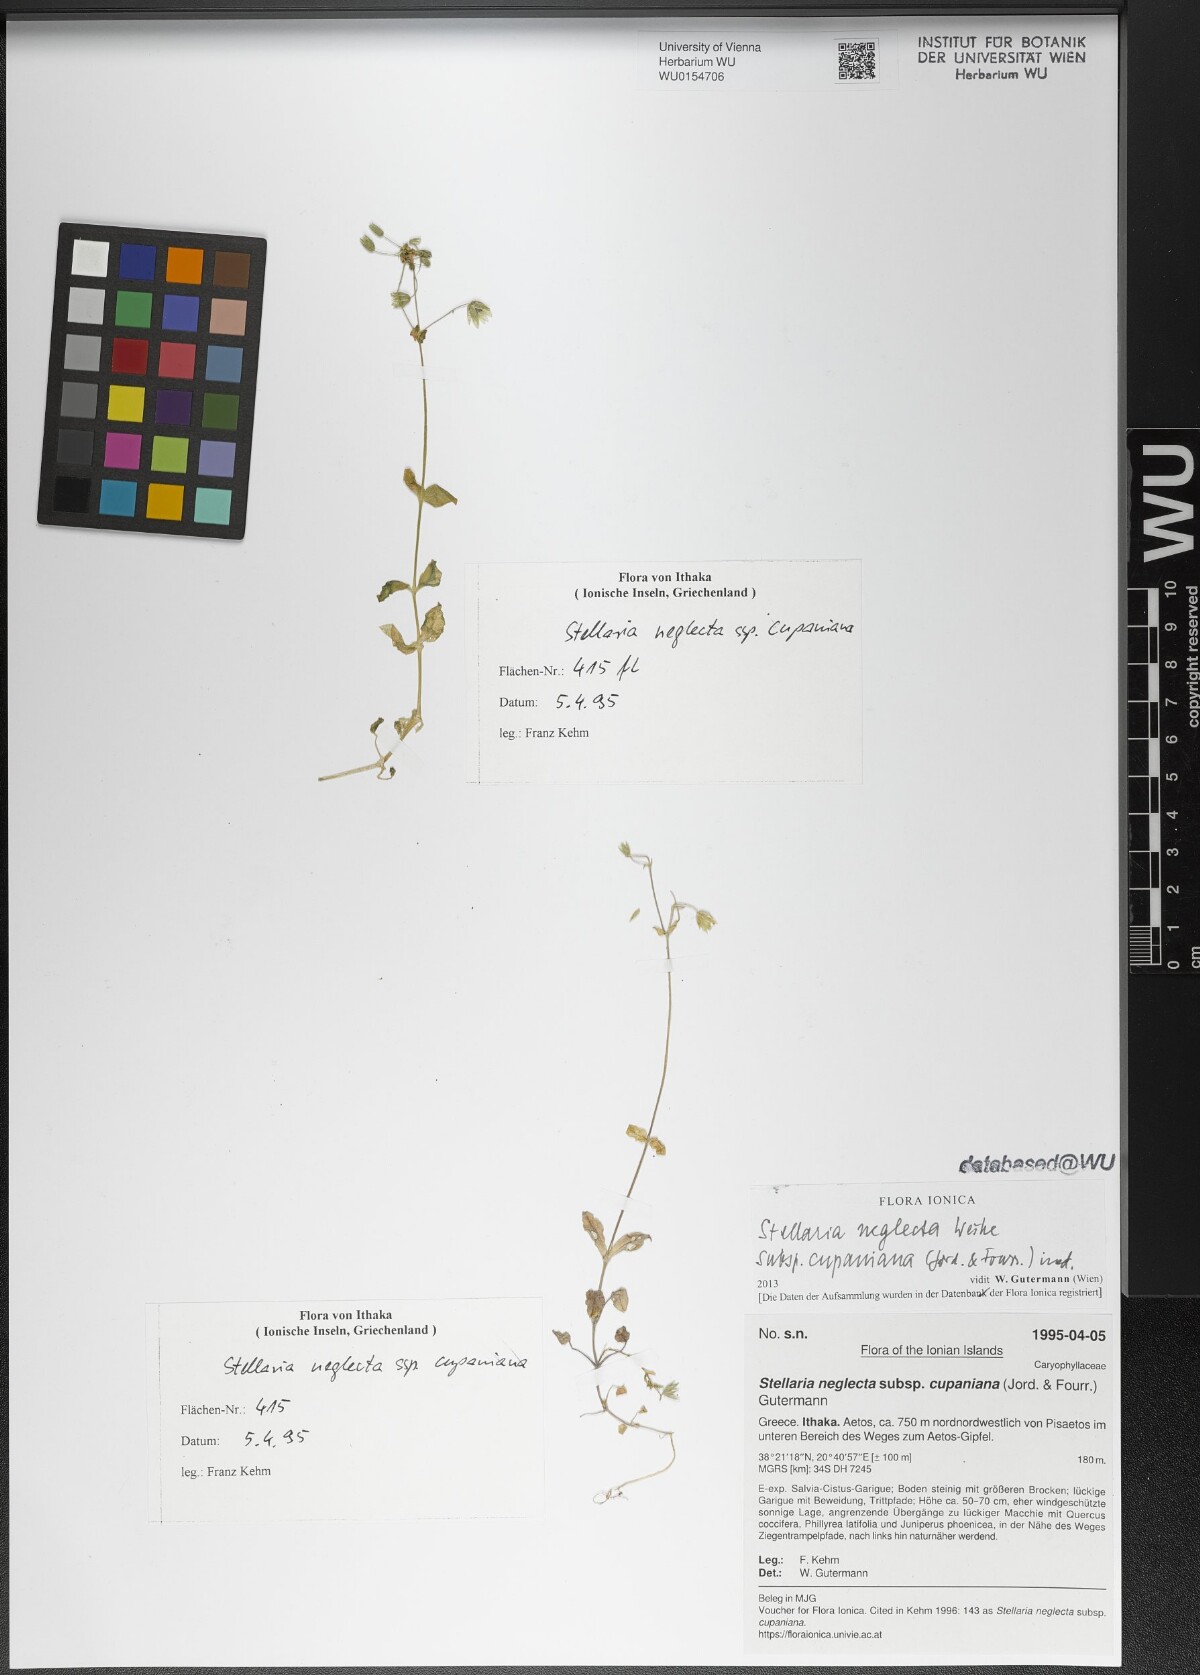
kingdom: Plantae
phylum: Tracheophyta
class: Magnoliopsida
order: Caryophyllales
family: Caryophyllaceae
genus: Stellaria
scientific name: Stellaria cupaniana
